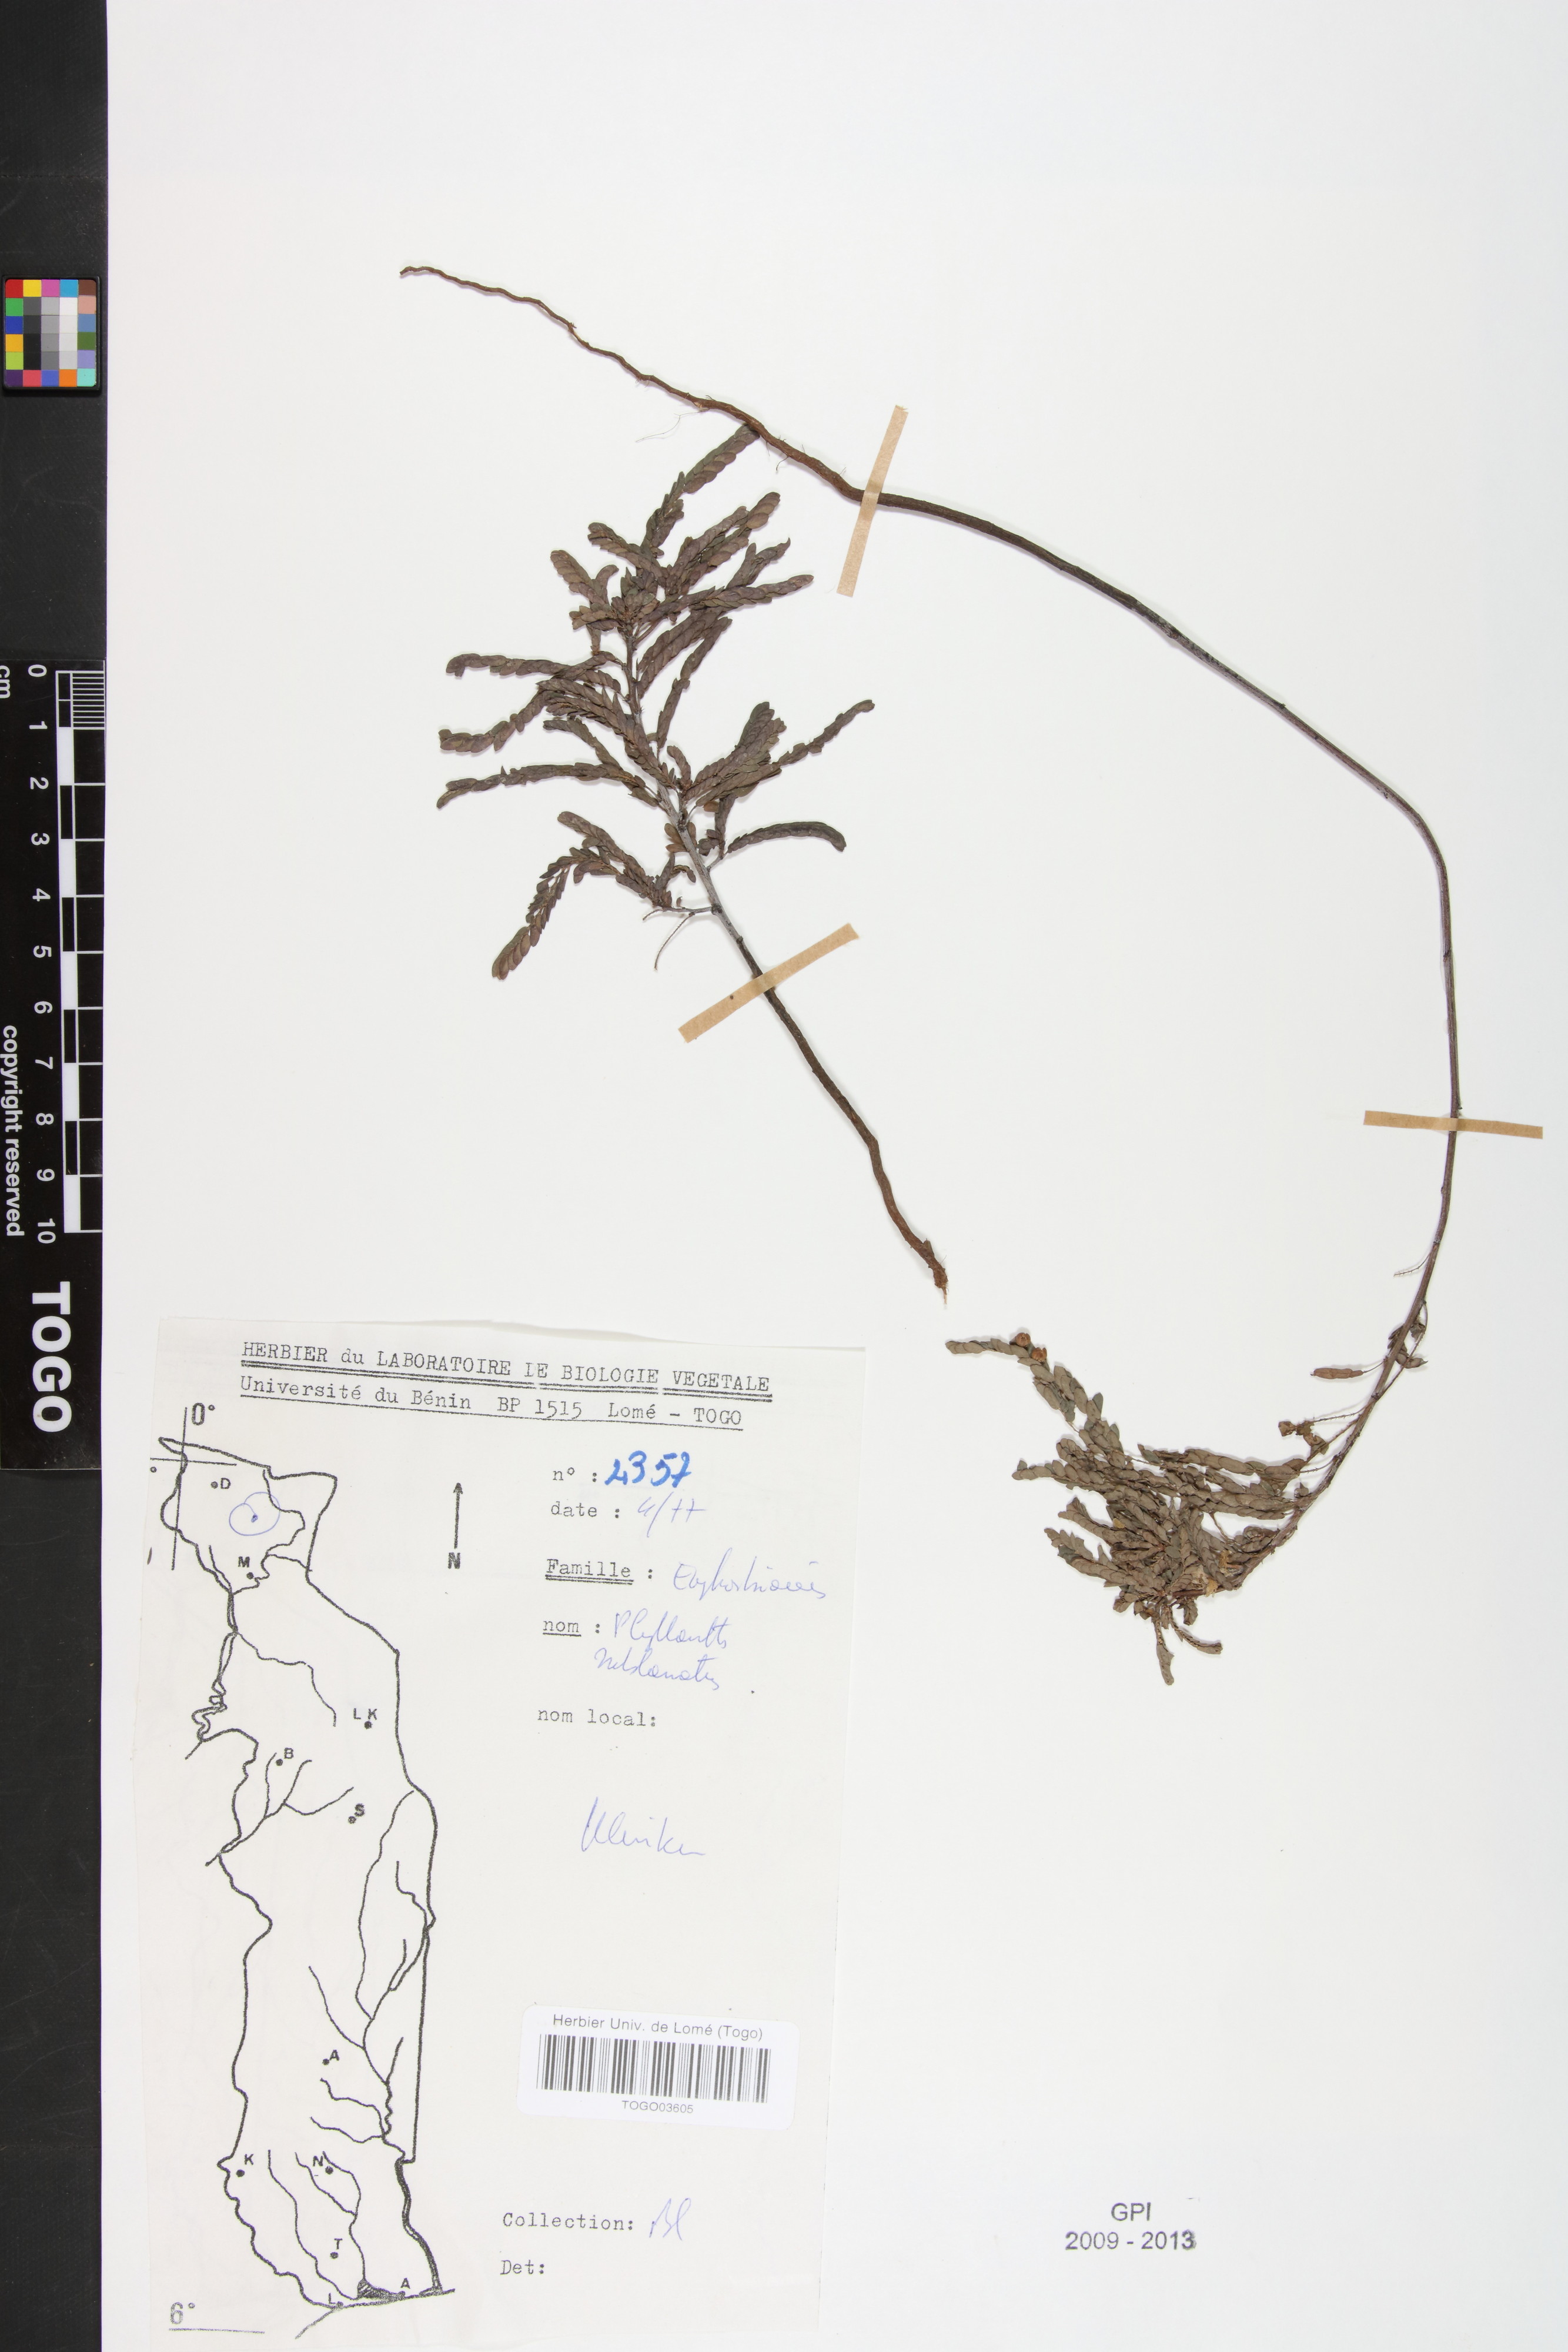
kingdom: Plantae
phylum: Tracheophyta
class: Magnoliopsida
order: Malpighiales
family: Phyllanthaceae
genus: Phyllanthus
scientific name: Phyllanthus sublanatus
